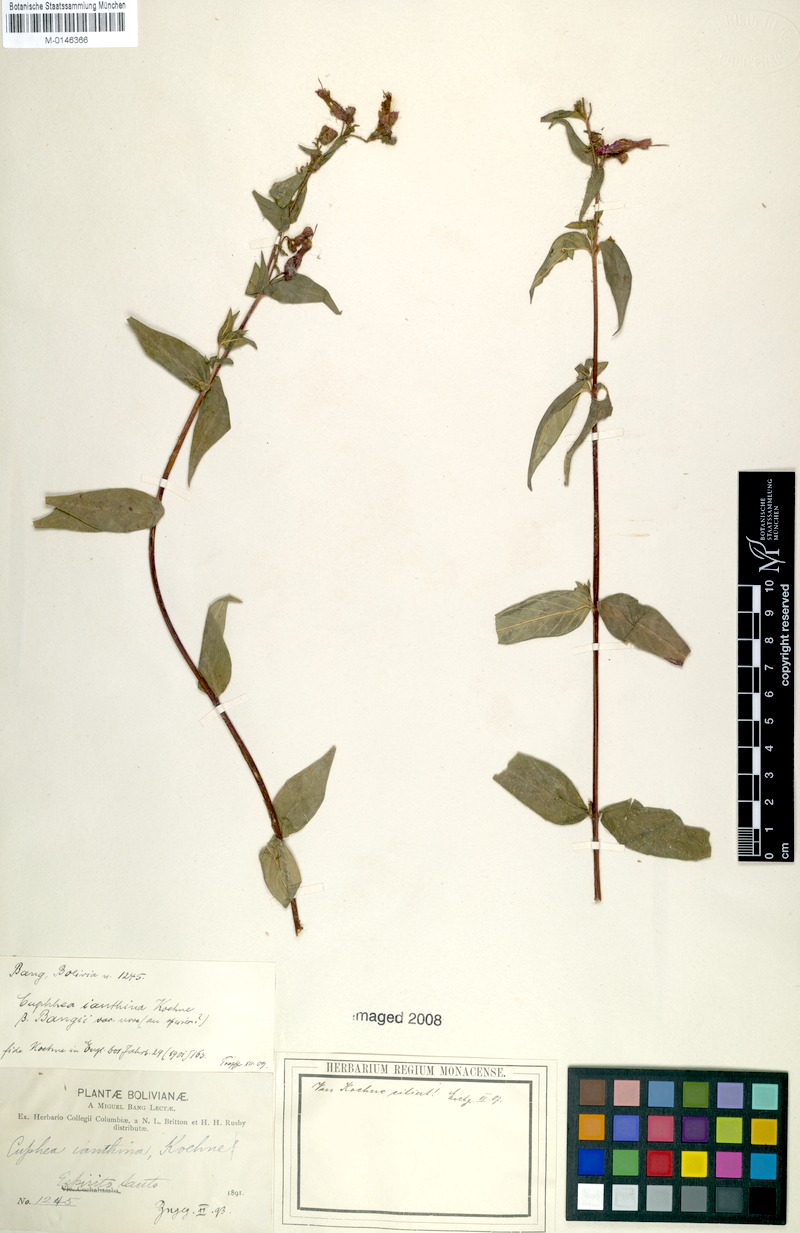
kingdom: Plantae
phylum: Tracheophyta
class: Magnoliopsida
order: Myrtales
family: Lythraceae
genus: Cuphea
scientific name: Cuphea cordata
